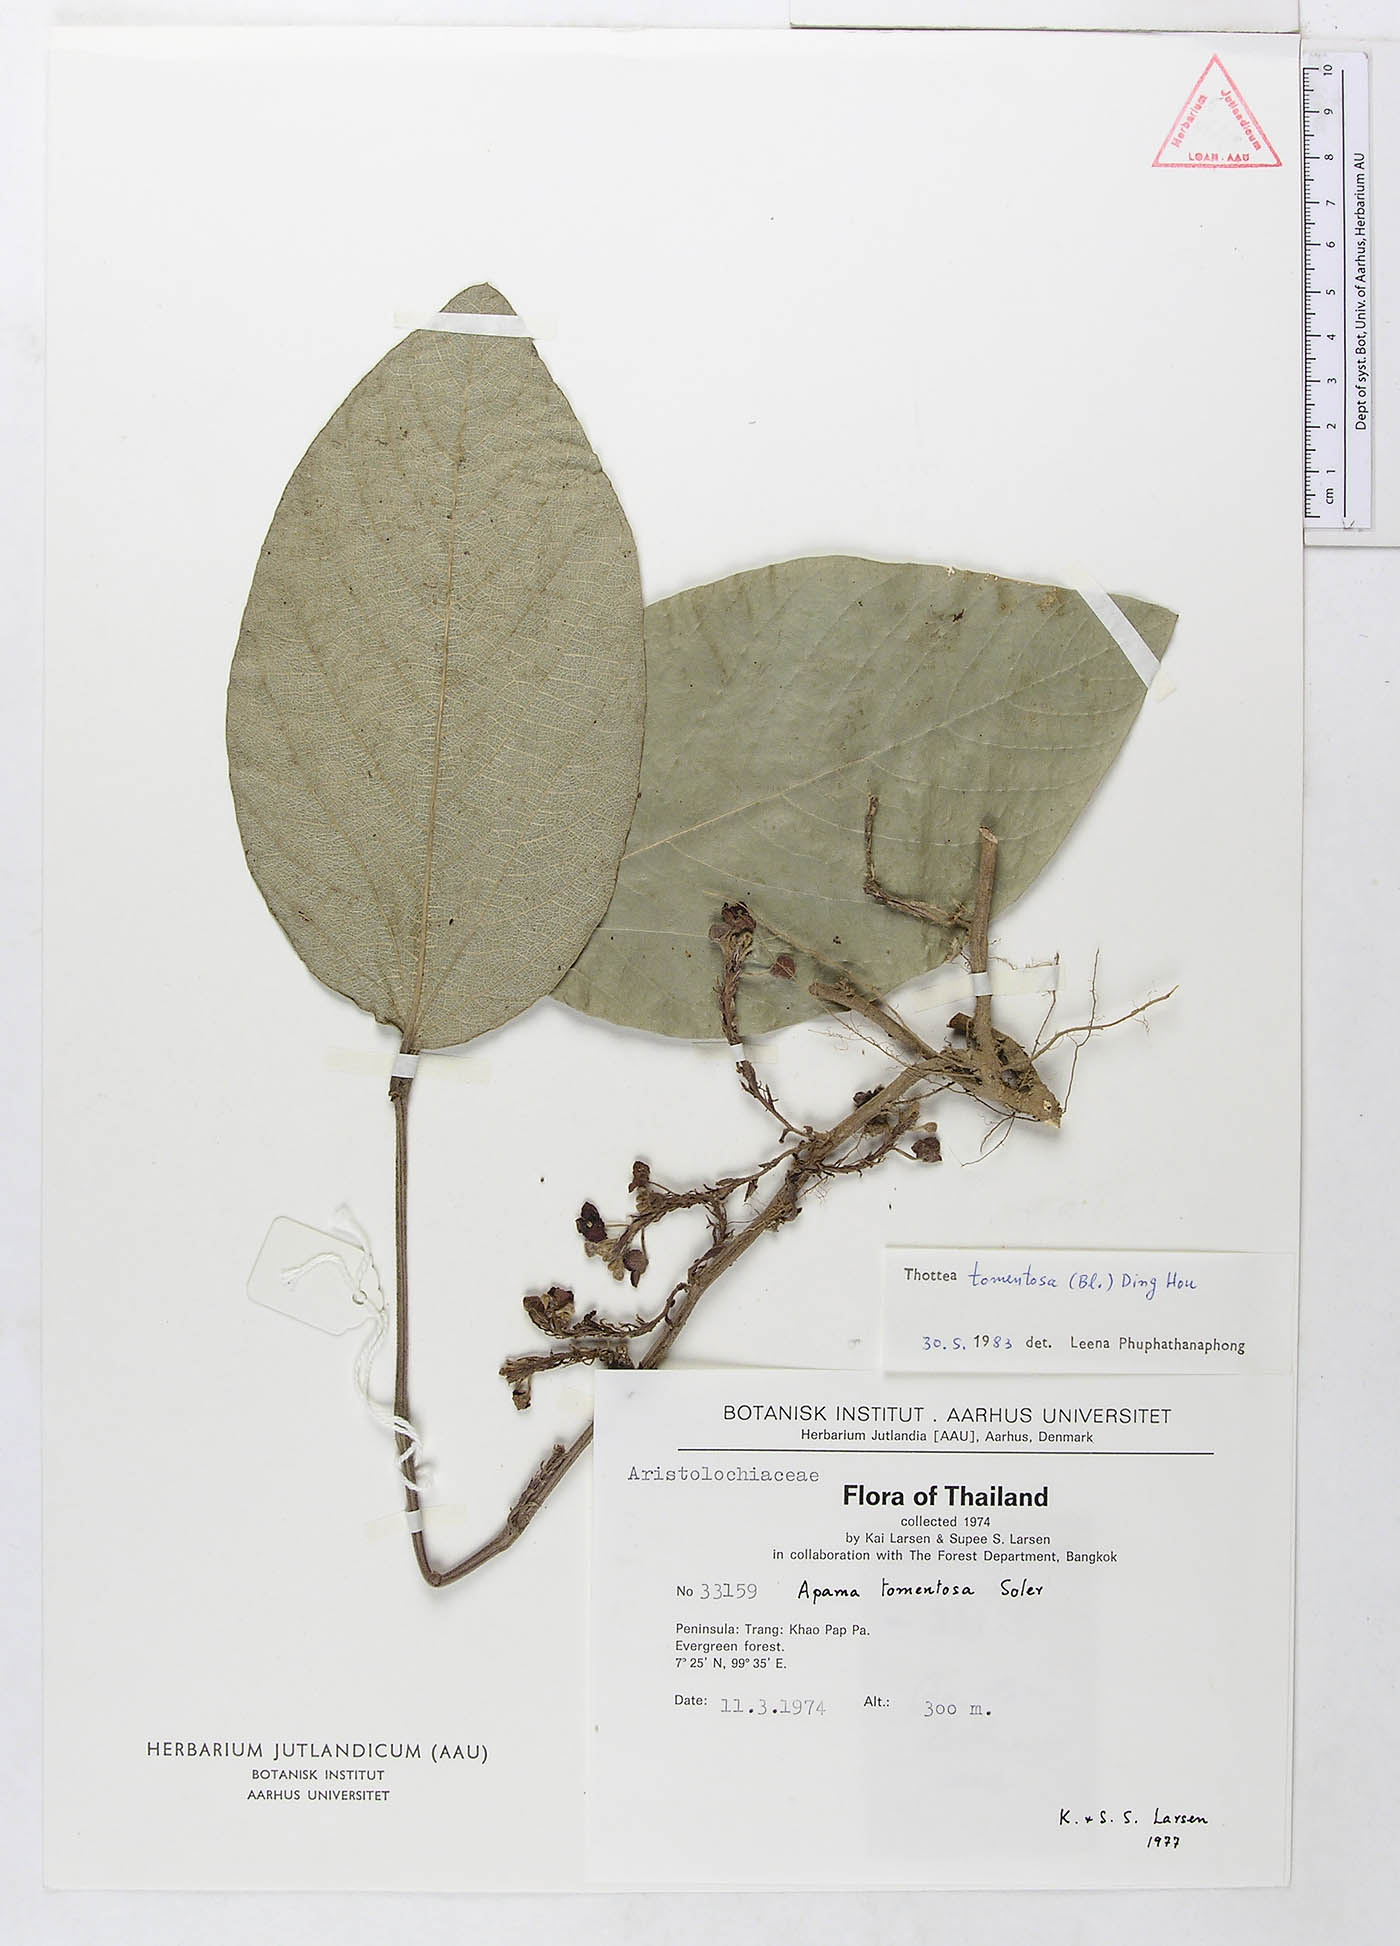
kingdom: Plantae
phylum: Tracheophyta
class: Magnoliopsida
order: Piperales
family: Aristolochiaceae
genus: Thottea
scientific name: Thottea tomentosa
